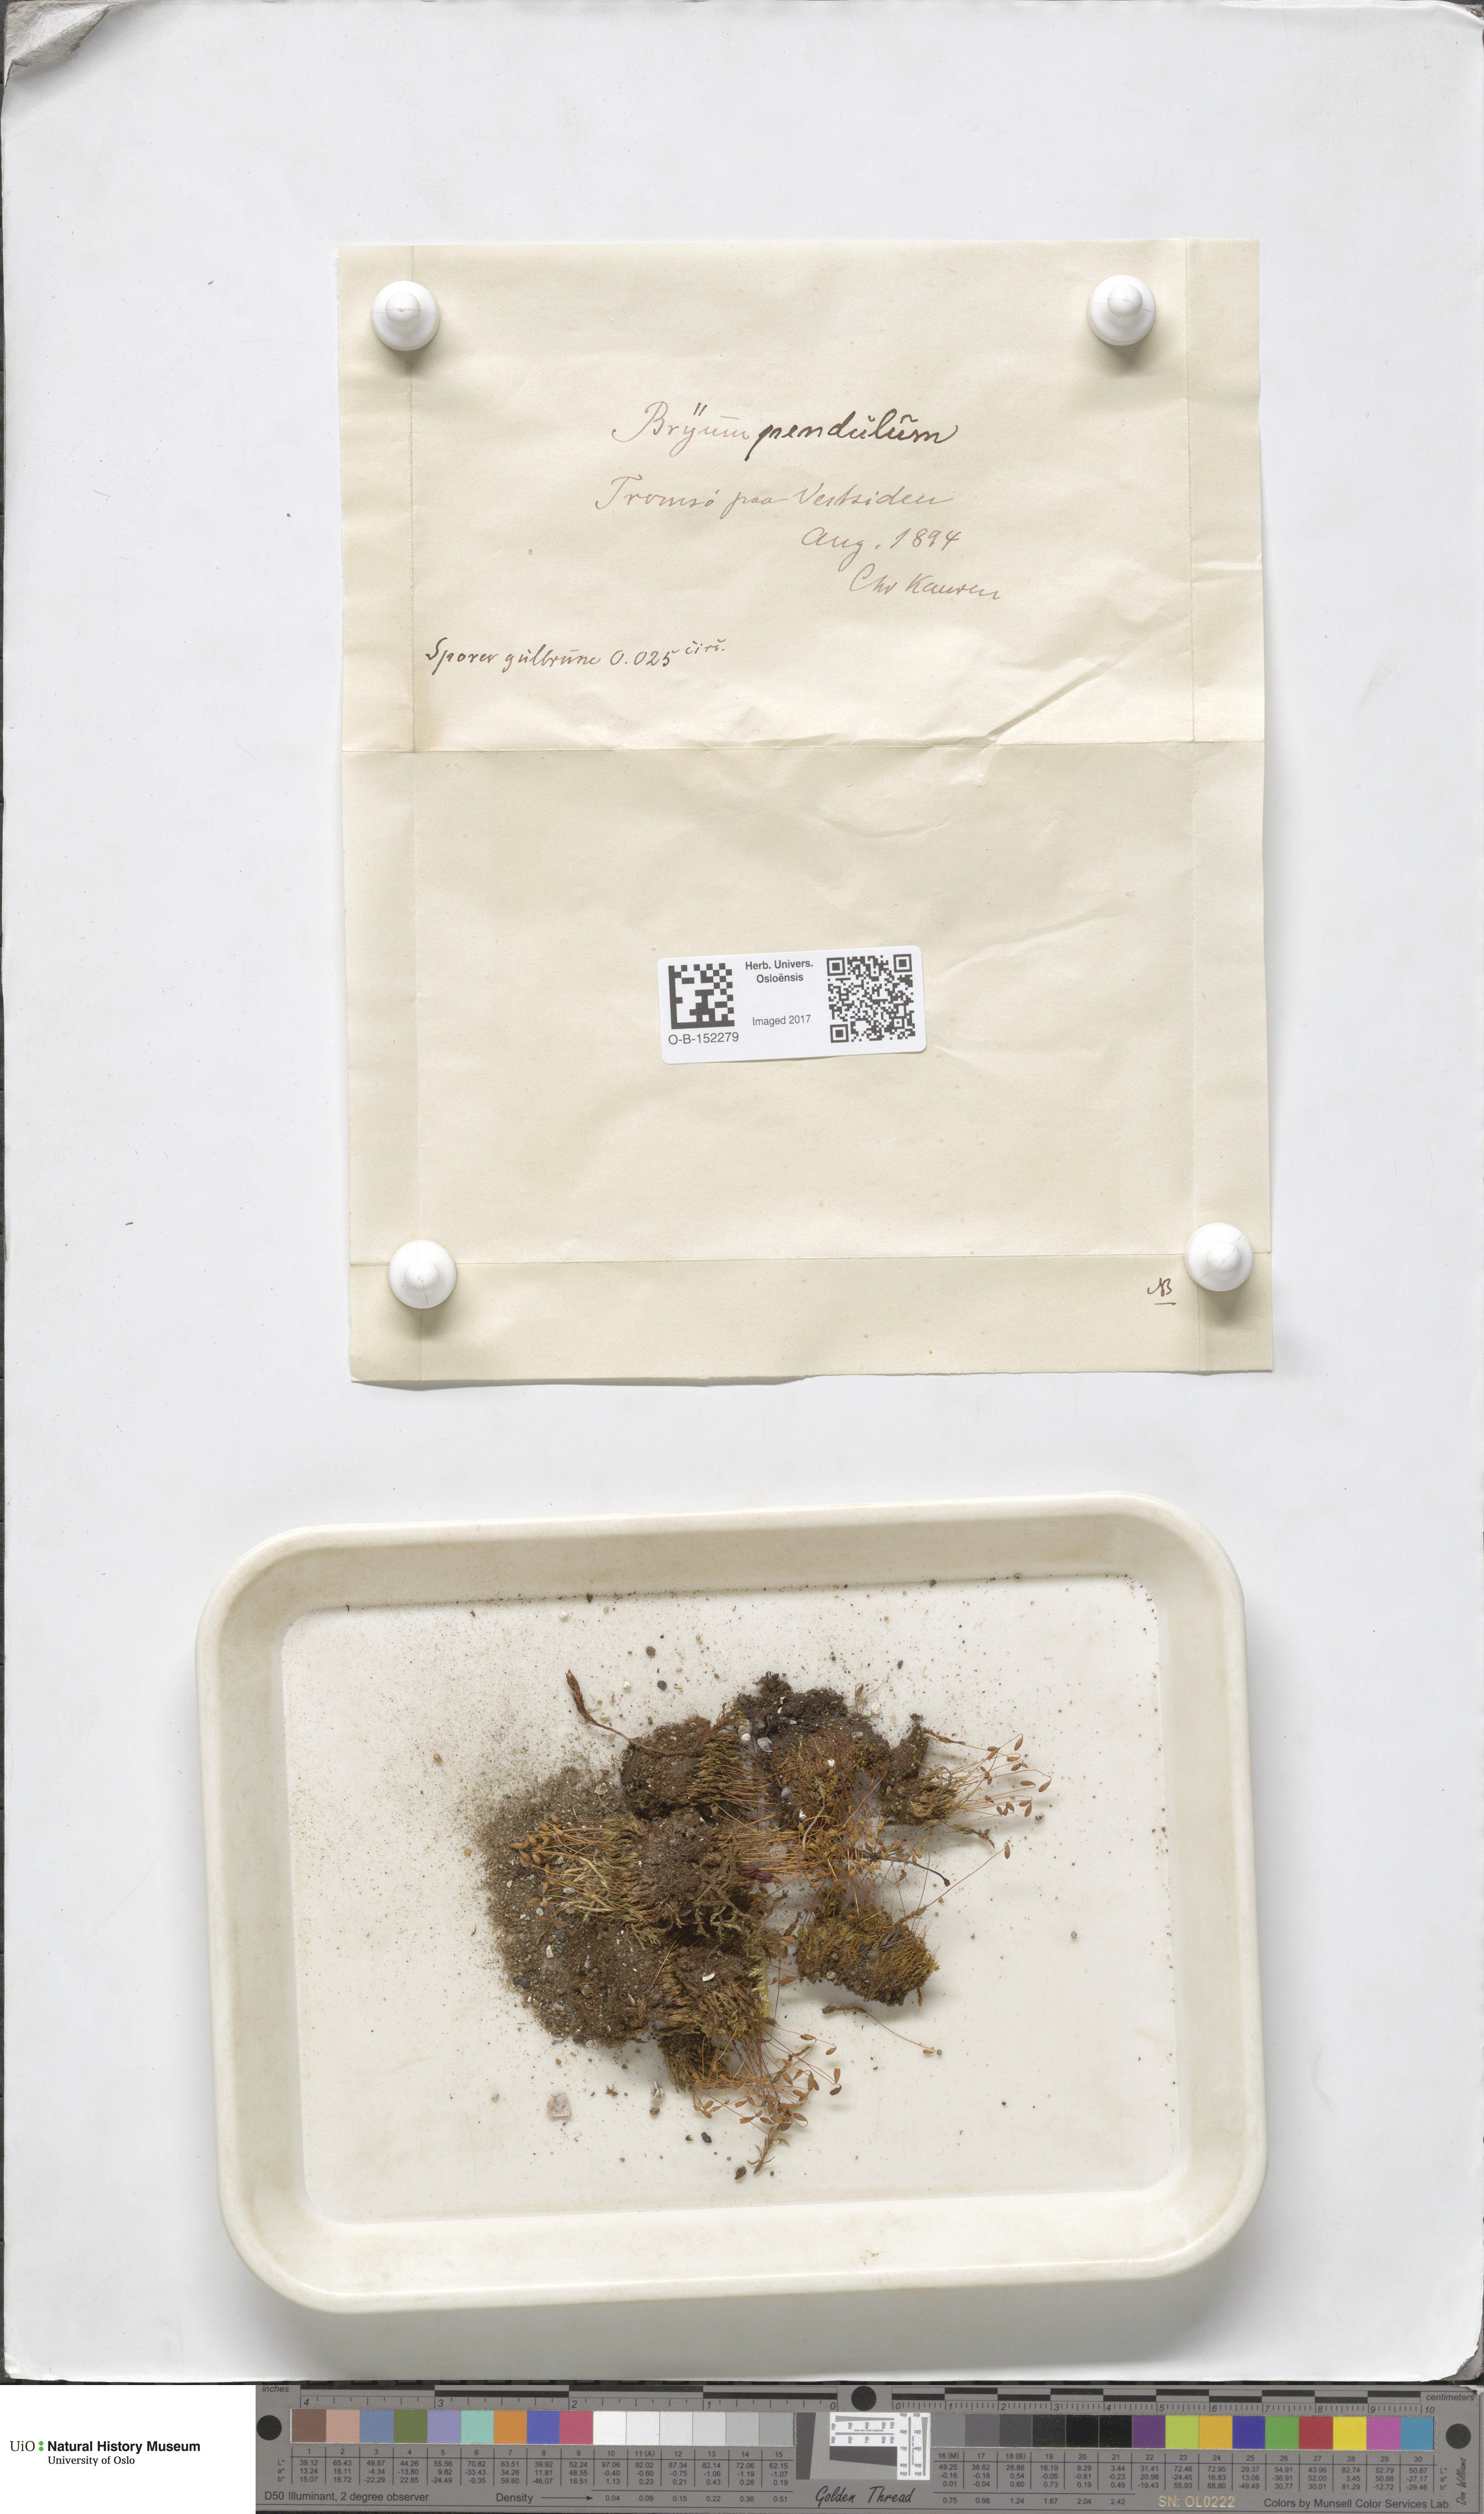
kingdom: Plantae
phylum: Bryophyta
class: Bryopsida
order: Bryales
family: Bryaceae
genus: Ptychostomum
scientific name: Ptychostomum compactum
